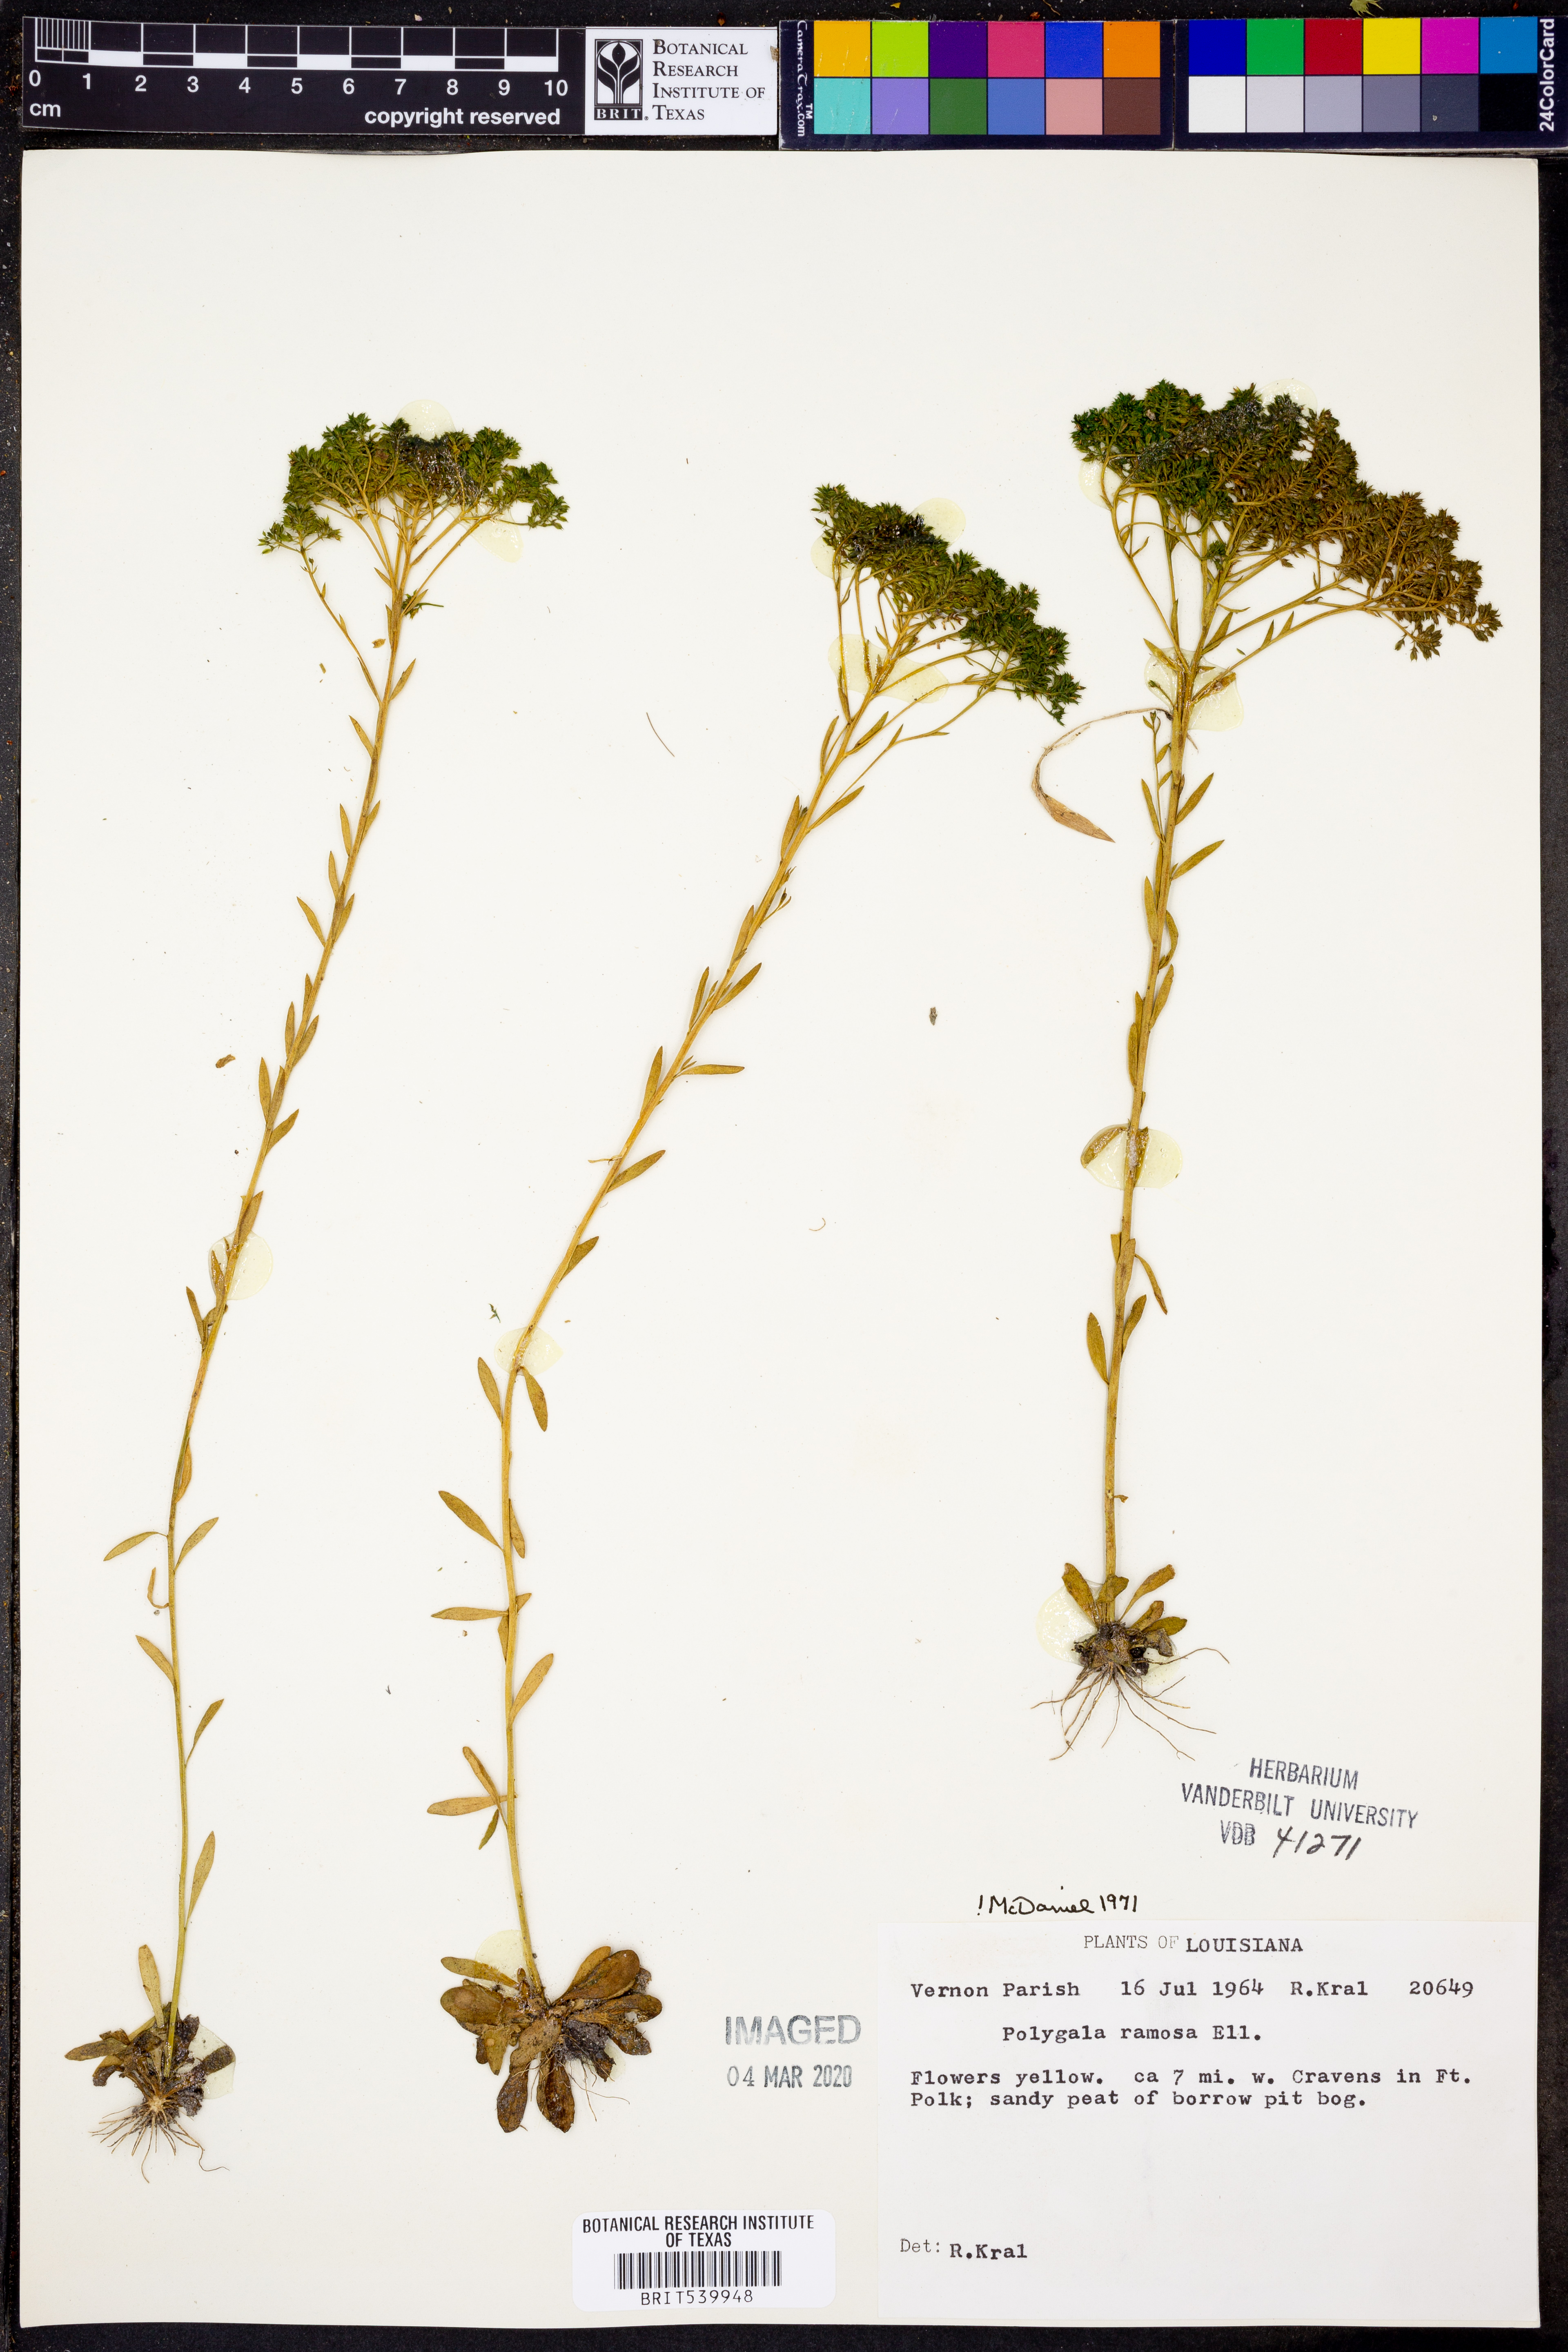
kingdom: Plantae
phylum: Tracheophyta
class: Magnoliopsida
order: Fabales
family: Polygalaceae
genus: Polygala
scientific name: Polygala ramosa
